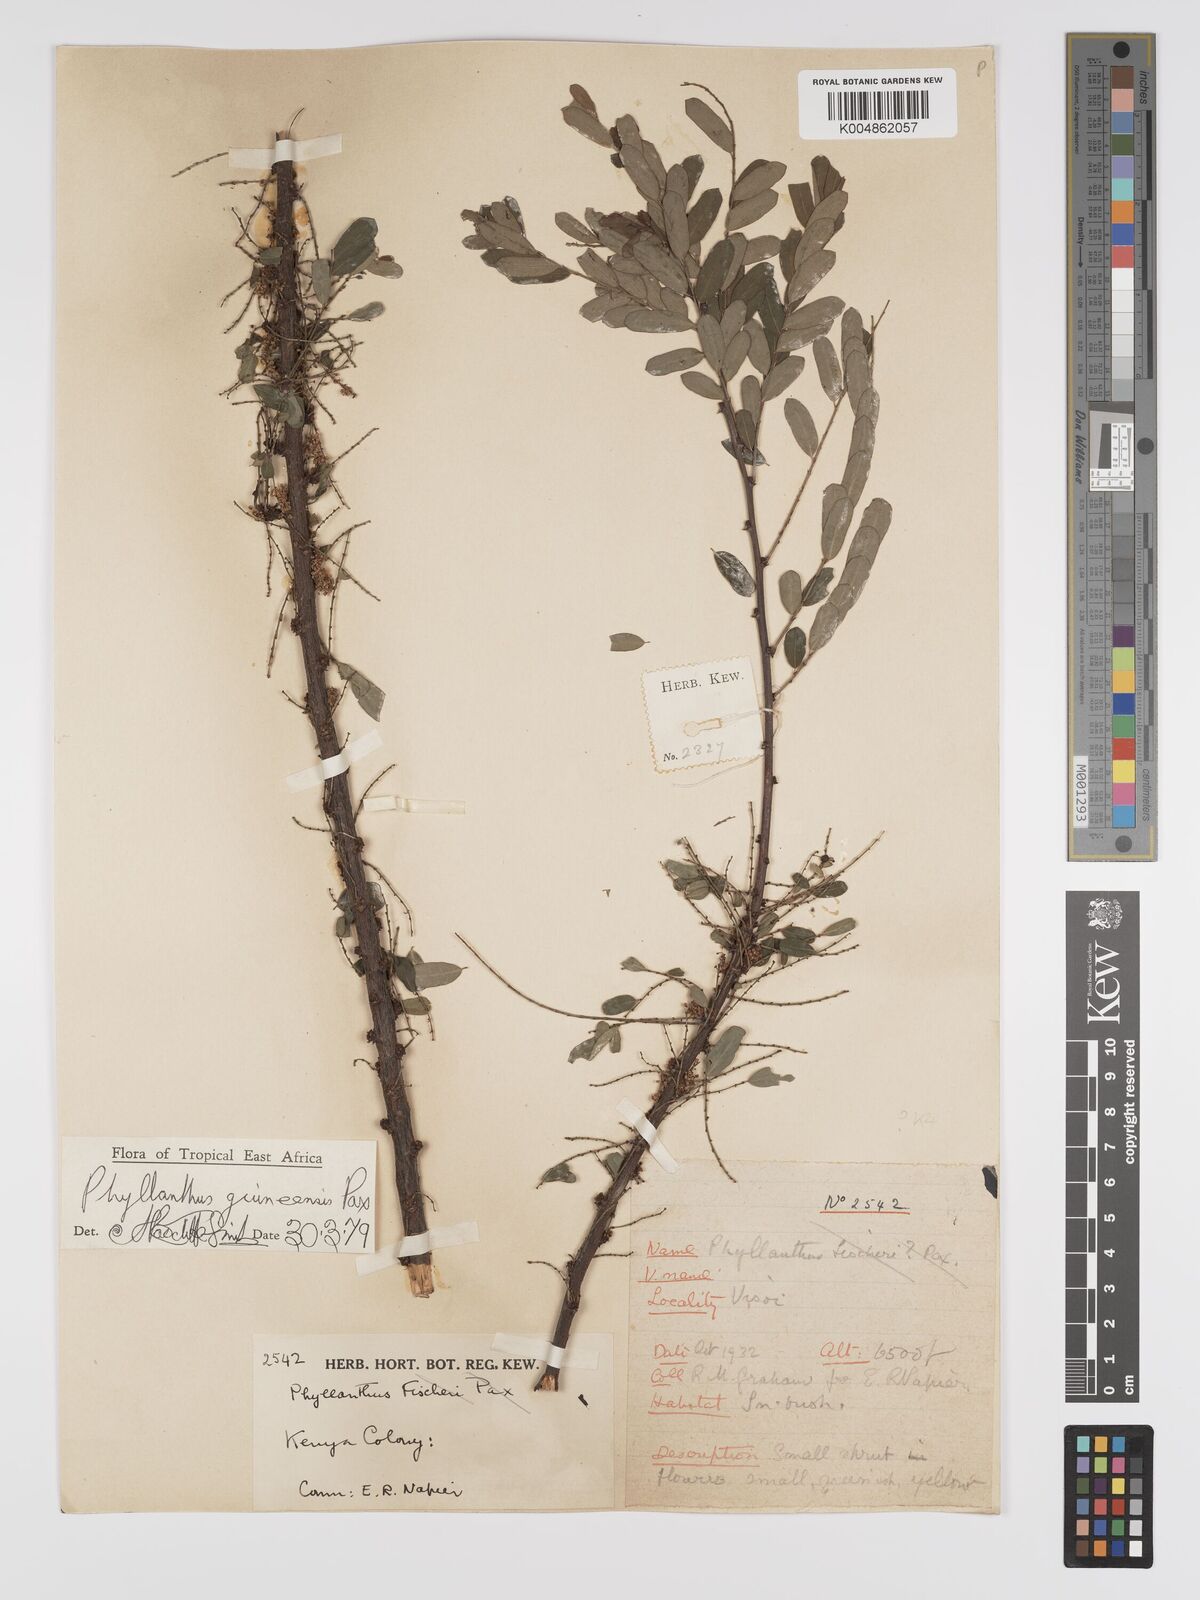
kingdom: Plantae
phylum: Tracheophyta
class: Magnoliopsida
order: Malpighiales
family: Phyllanthaceae
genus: Phyllanthus
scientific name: Phyllanthus ovalifolius
